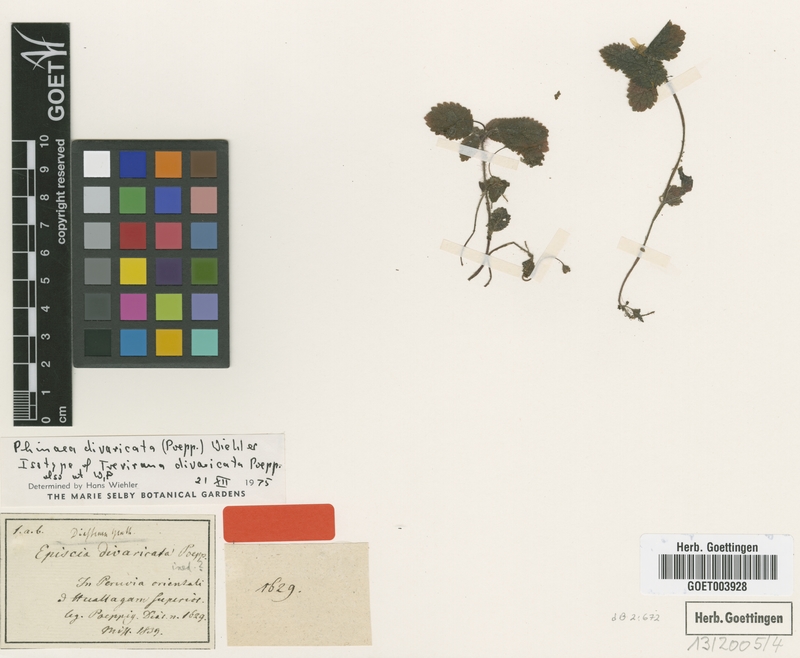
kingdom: Plantae
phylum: Tracheophyta
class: Magnoliopsida
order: Lamiales
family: Gesneriaceae
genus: Amalophyllon
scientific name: Amalophyllon divaricatum
